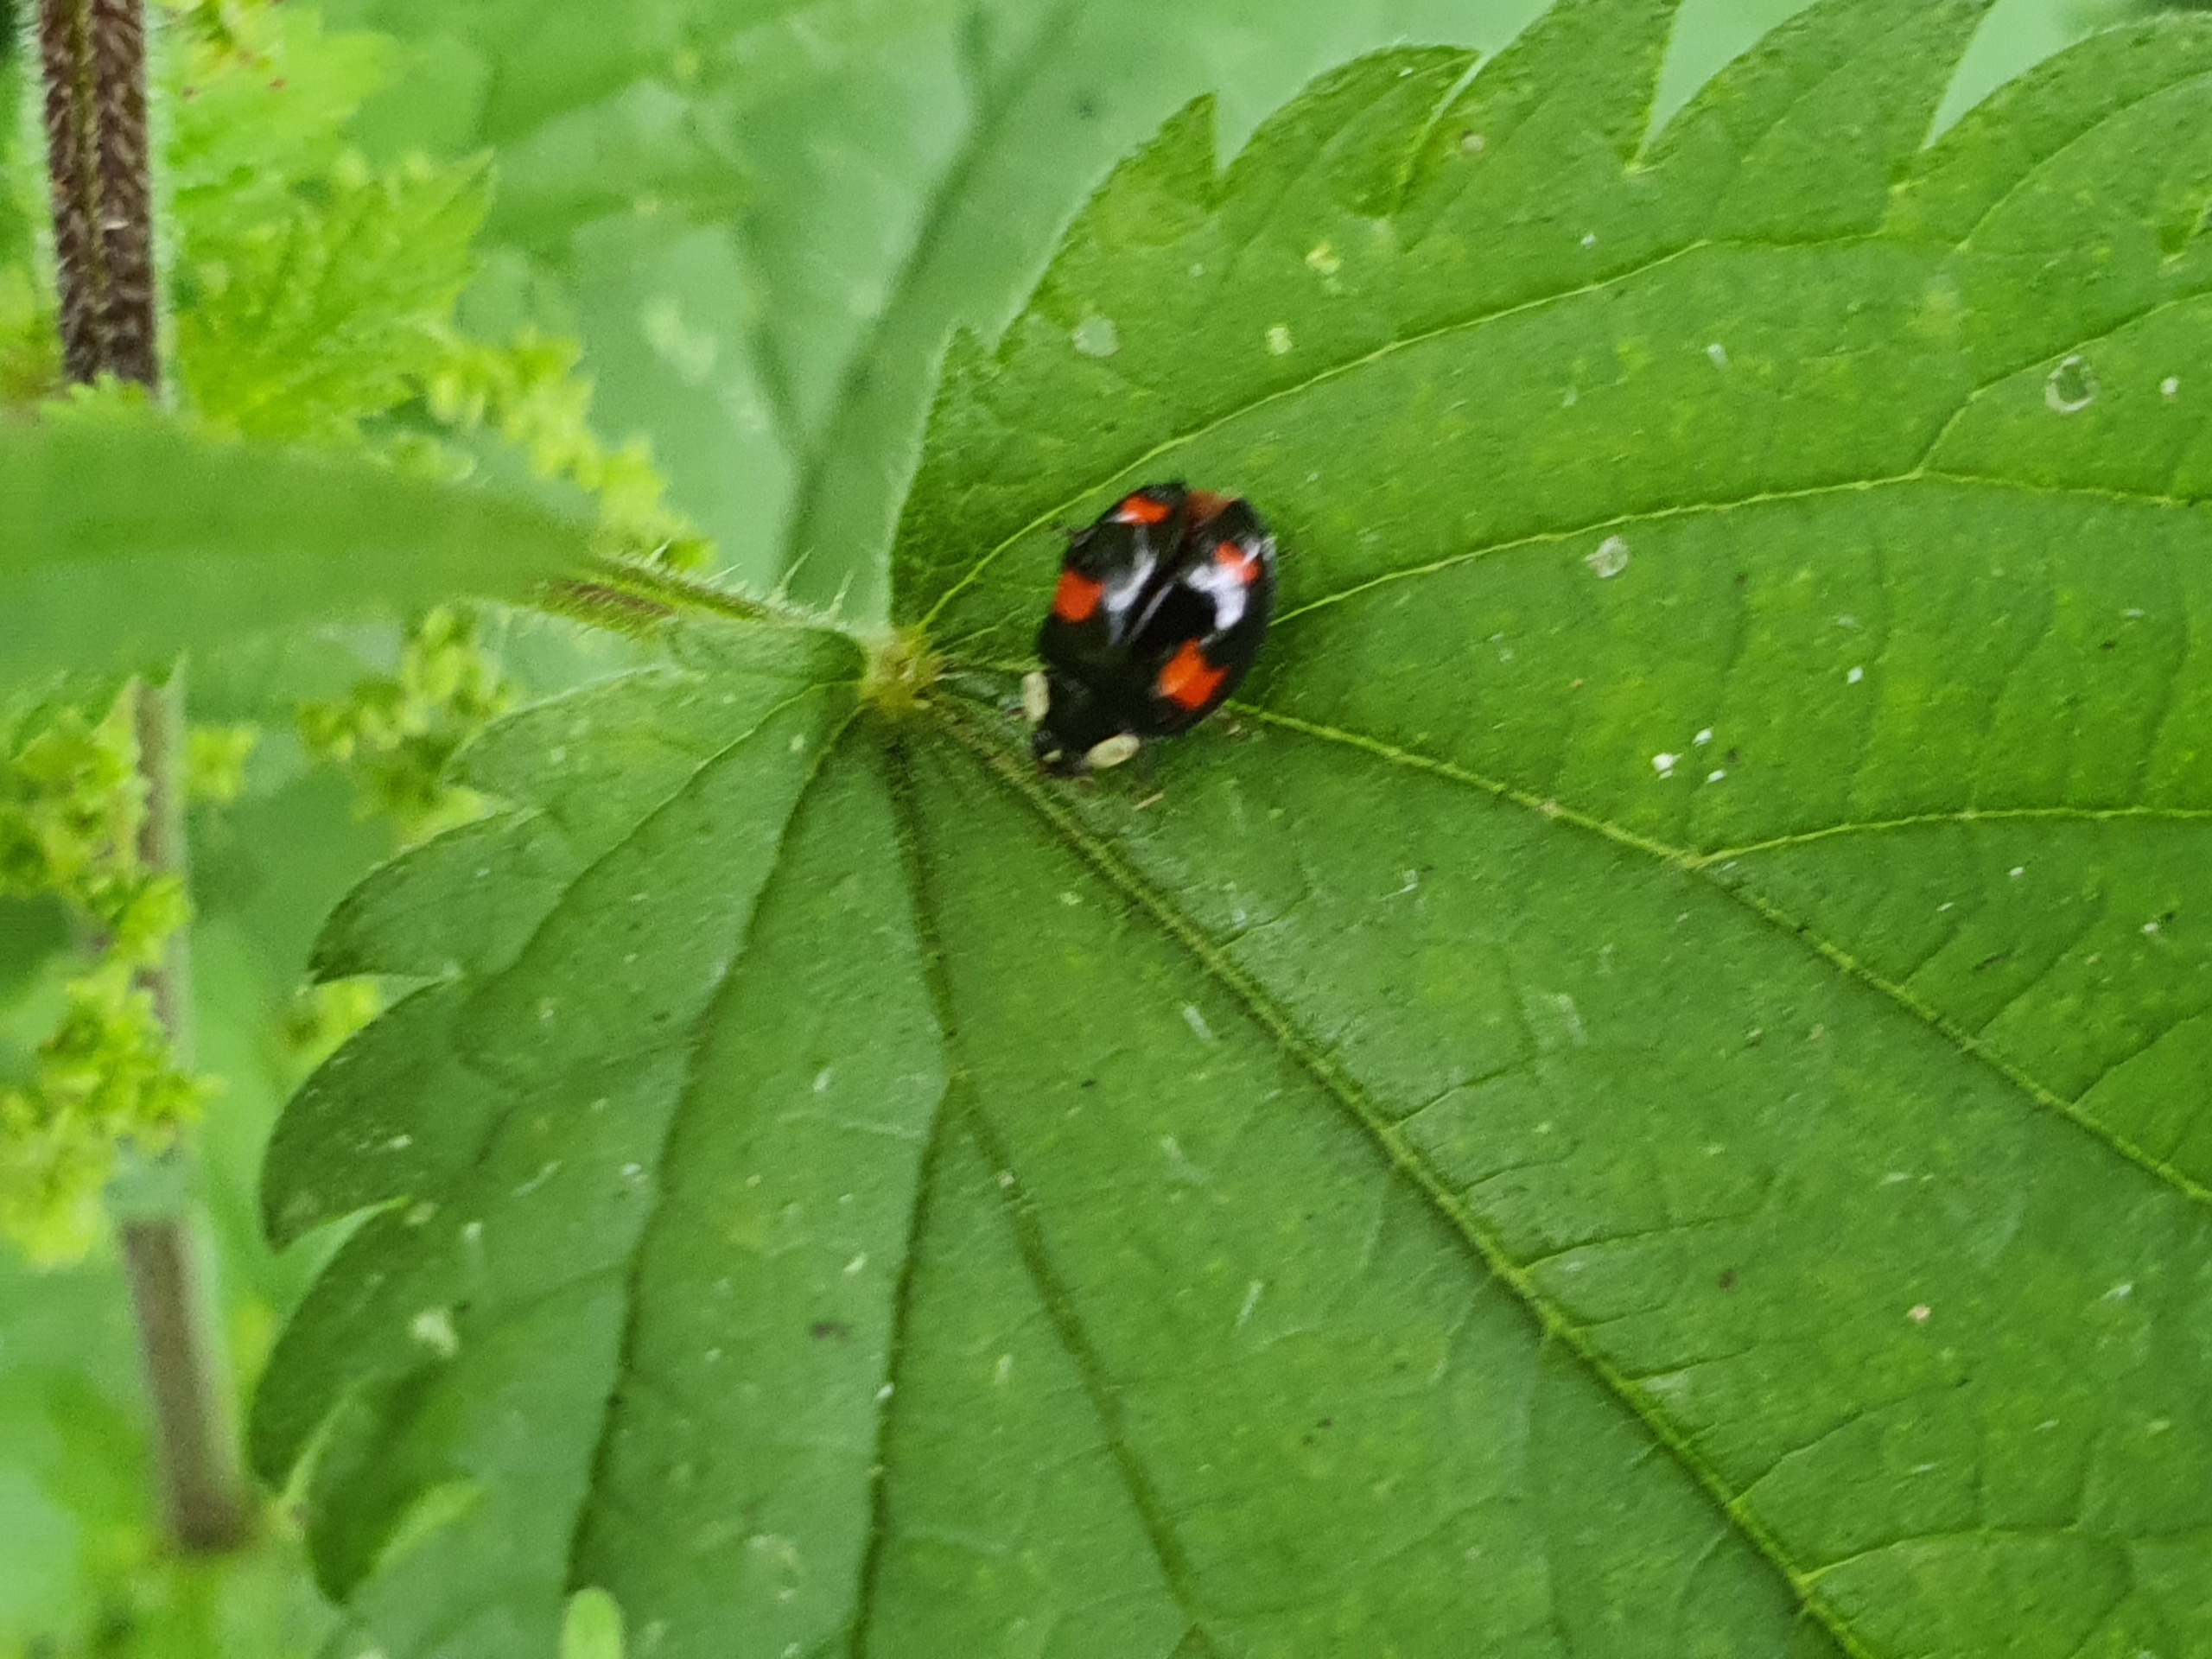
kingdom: Animalia
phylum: Arthropoda
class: Insecta
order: Coleoptera
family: Coccinellidae
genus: Harmonia
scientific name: Harmonia axyridis
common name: Harlekinmariehøne
